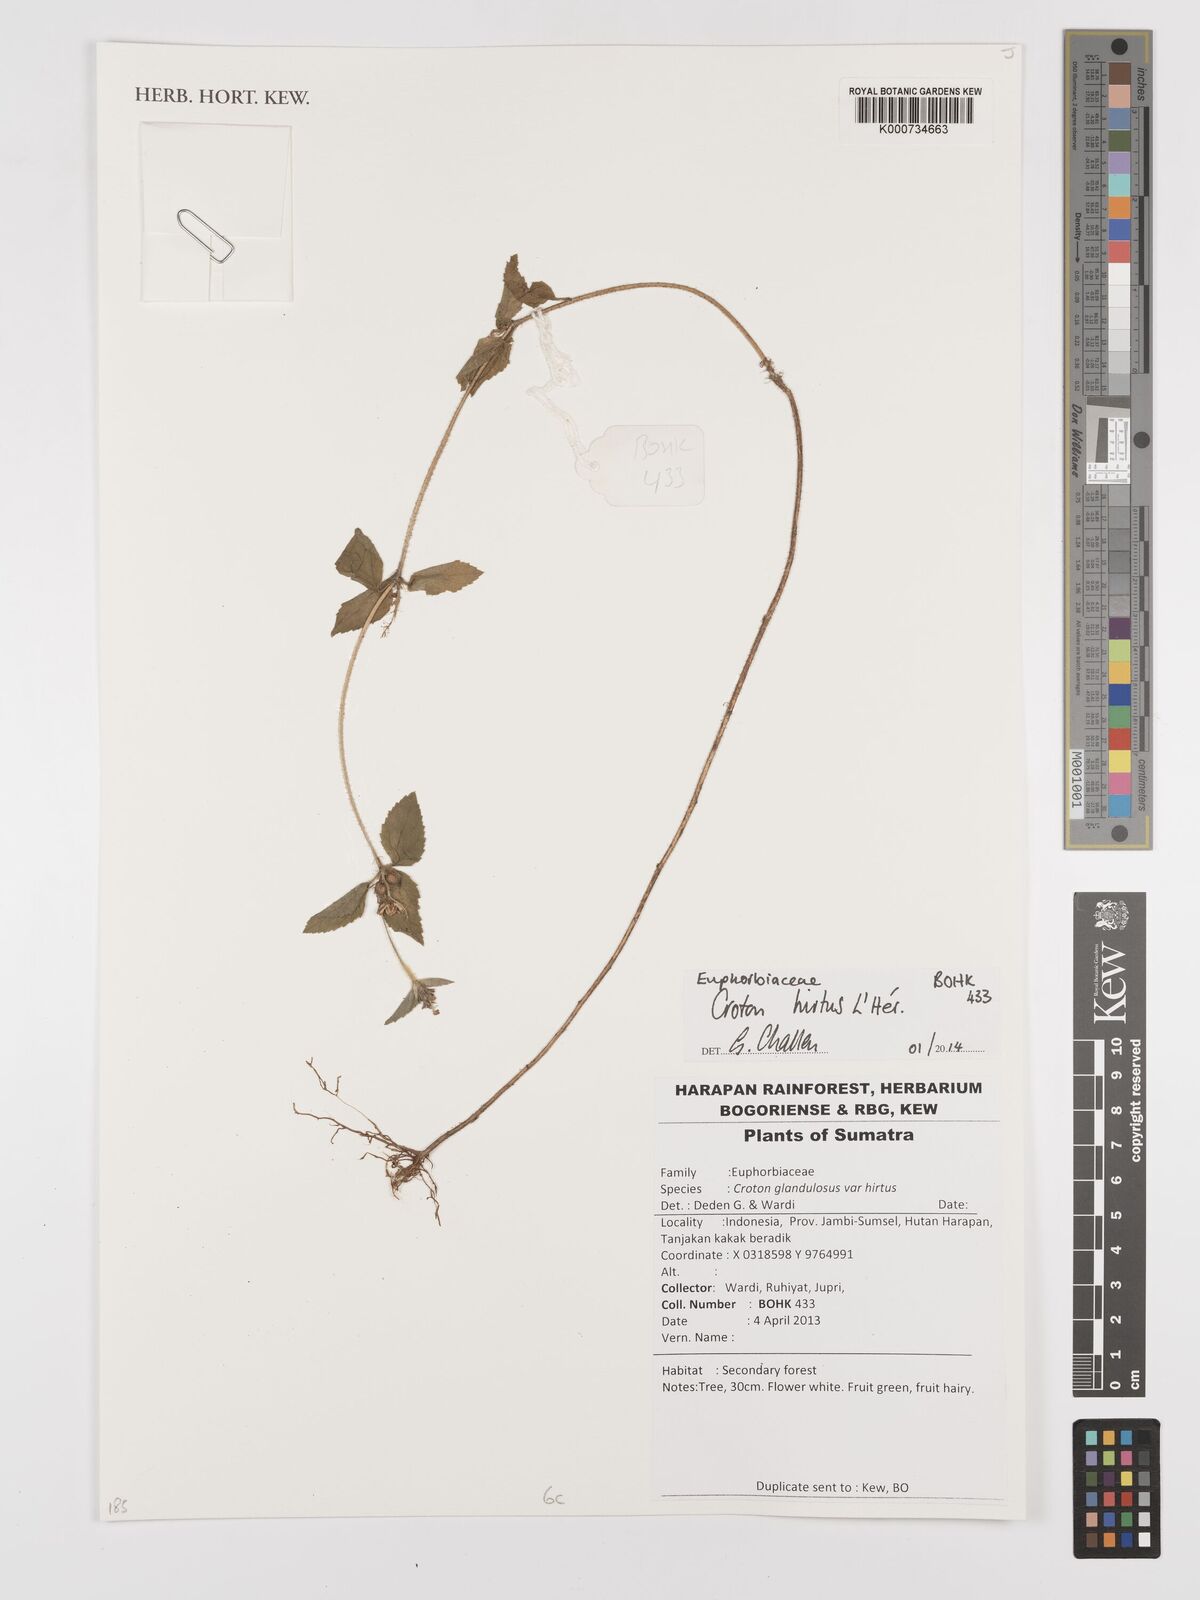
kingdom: Plantae
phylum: Tracheophyta
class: Magnoliopsida
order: Malpighiales
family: Euphorbiaceae
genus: Croton
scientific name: Croton
